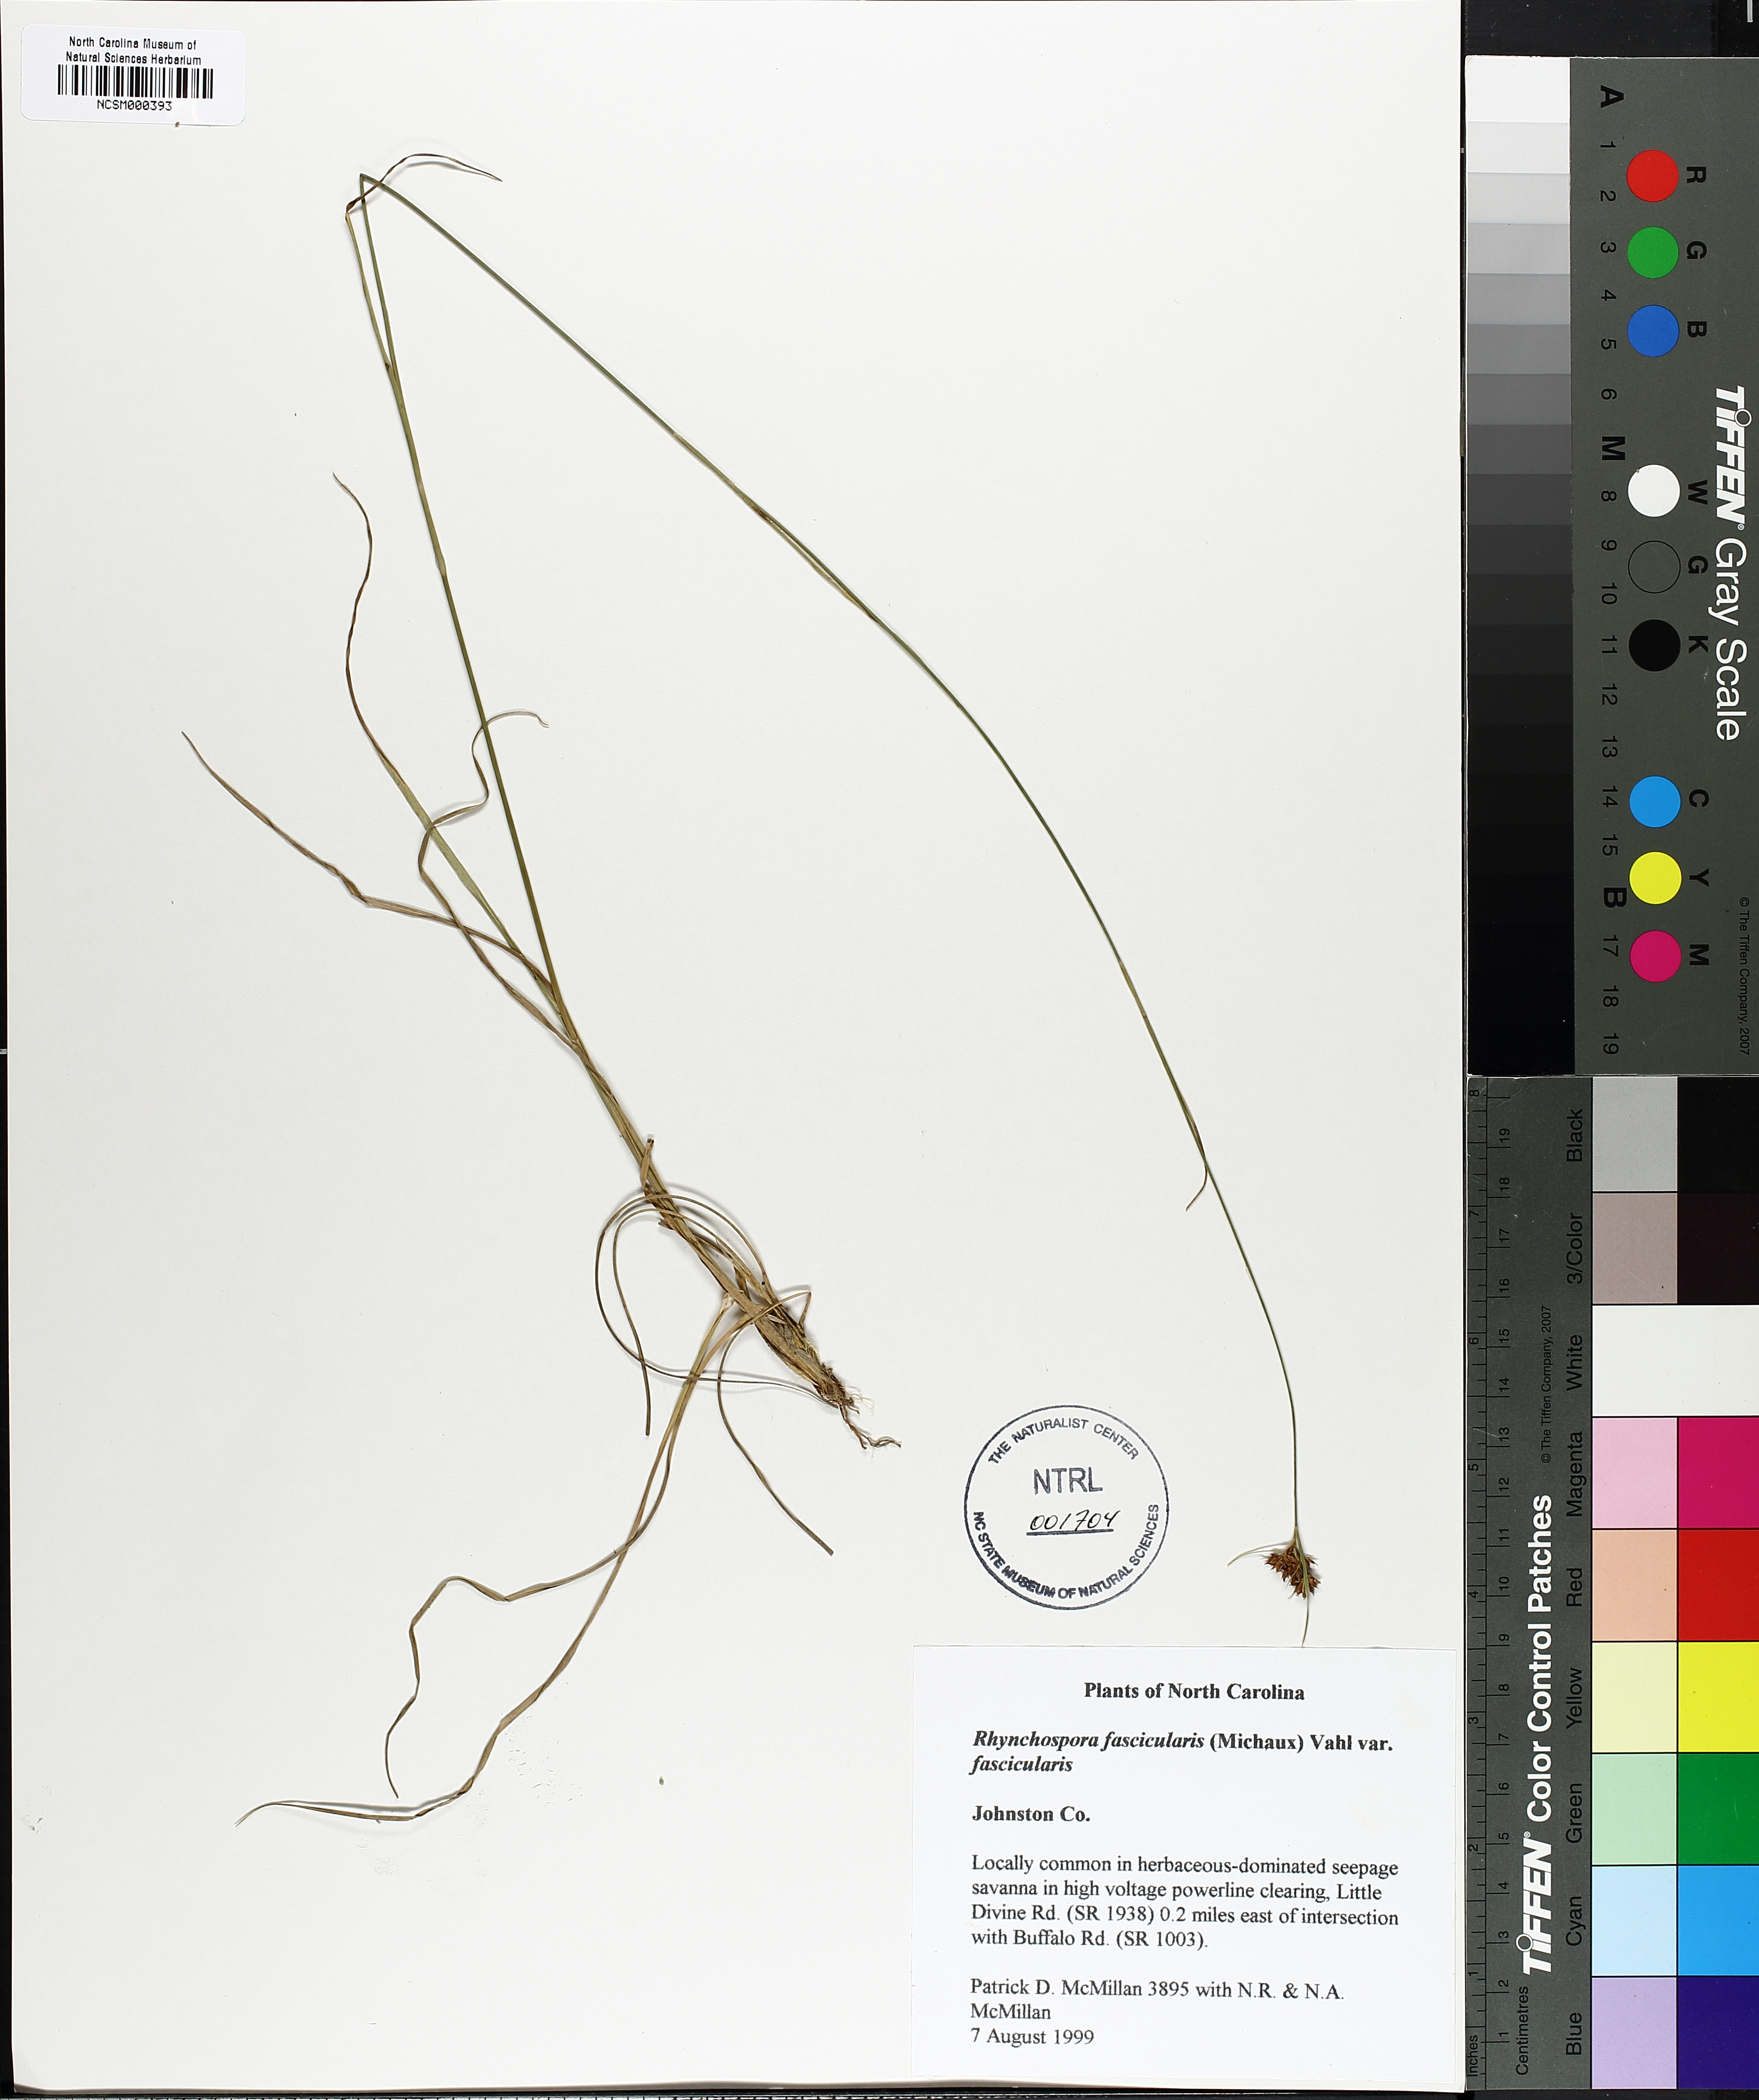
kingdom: Plantae
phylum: Tracheophyta
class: Liliopsida
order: Poales
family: Cyperaceae
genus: Rhynchospora
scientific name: Rhynchospora fascicularis
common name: Fascicled beak sedge
